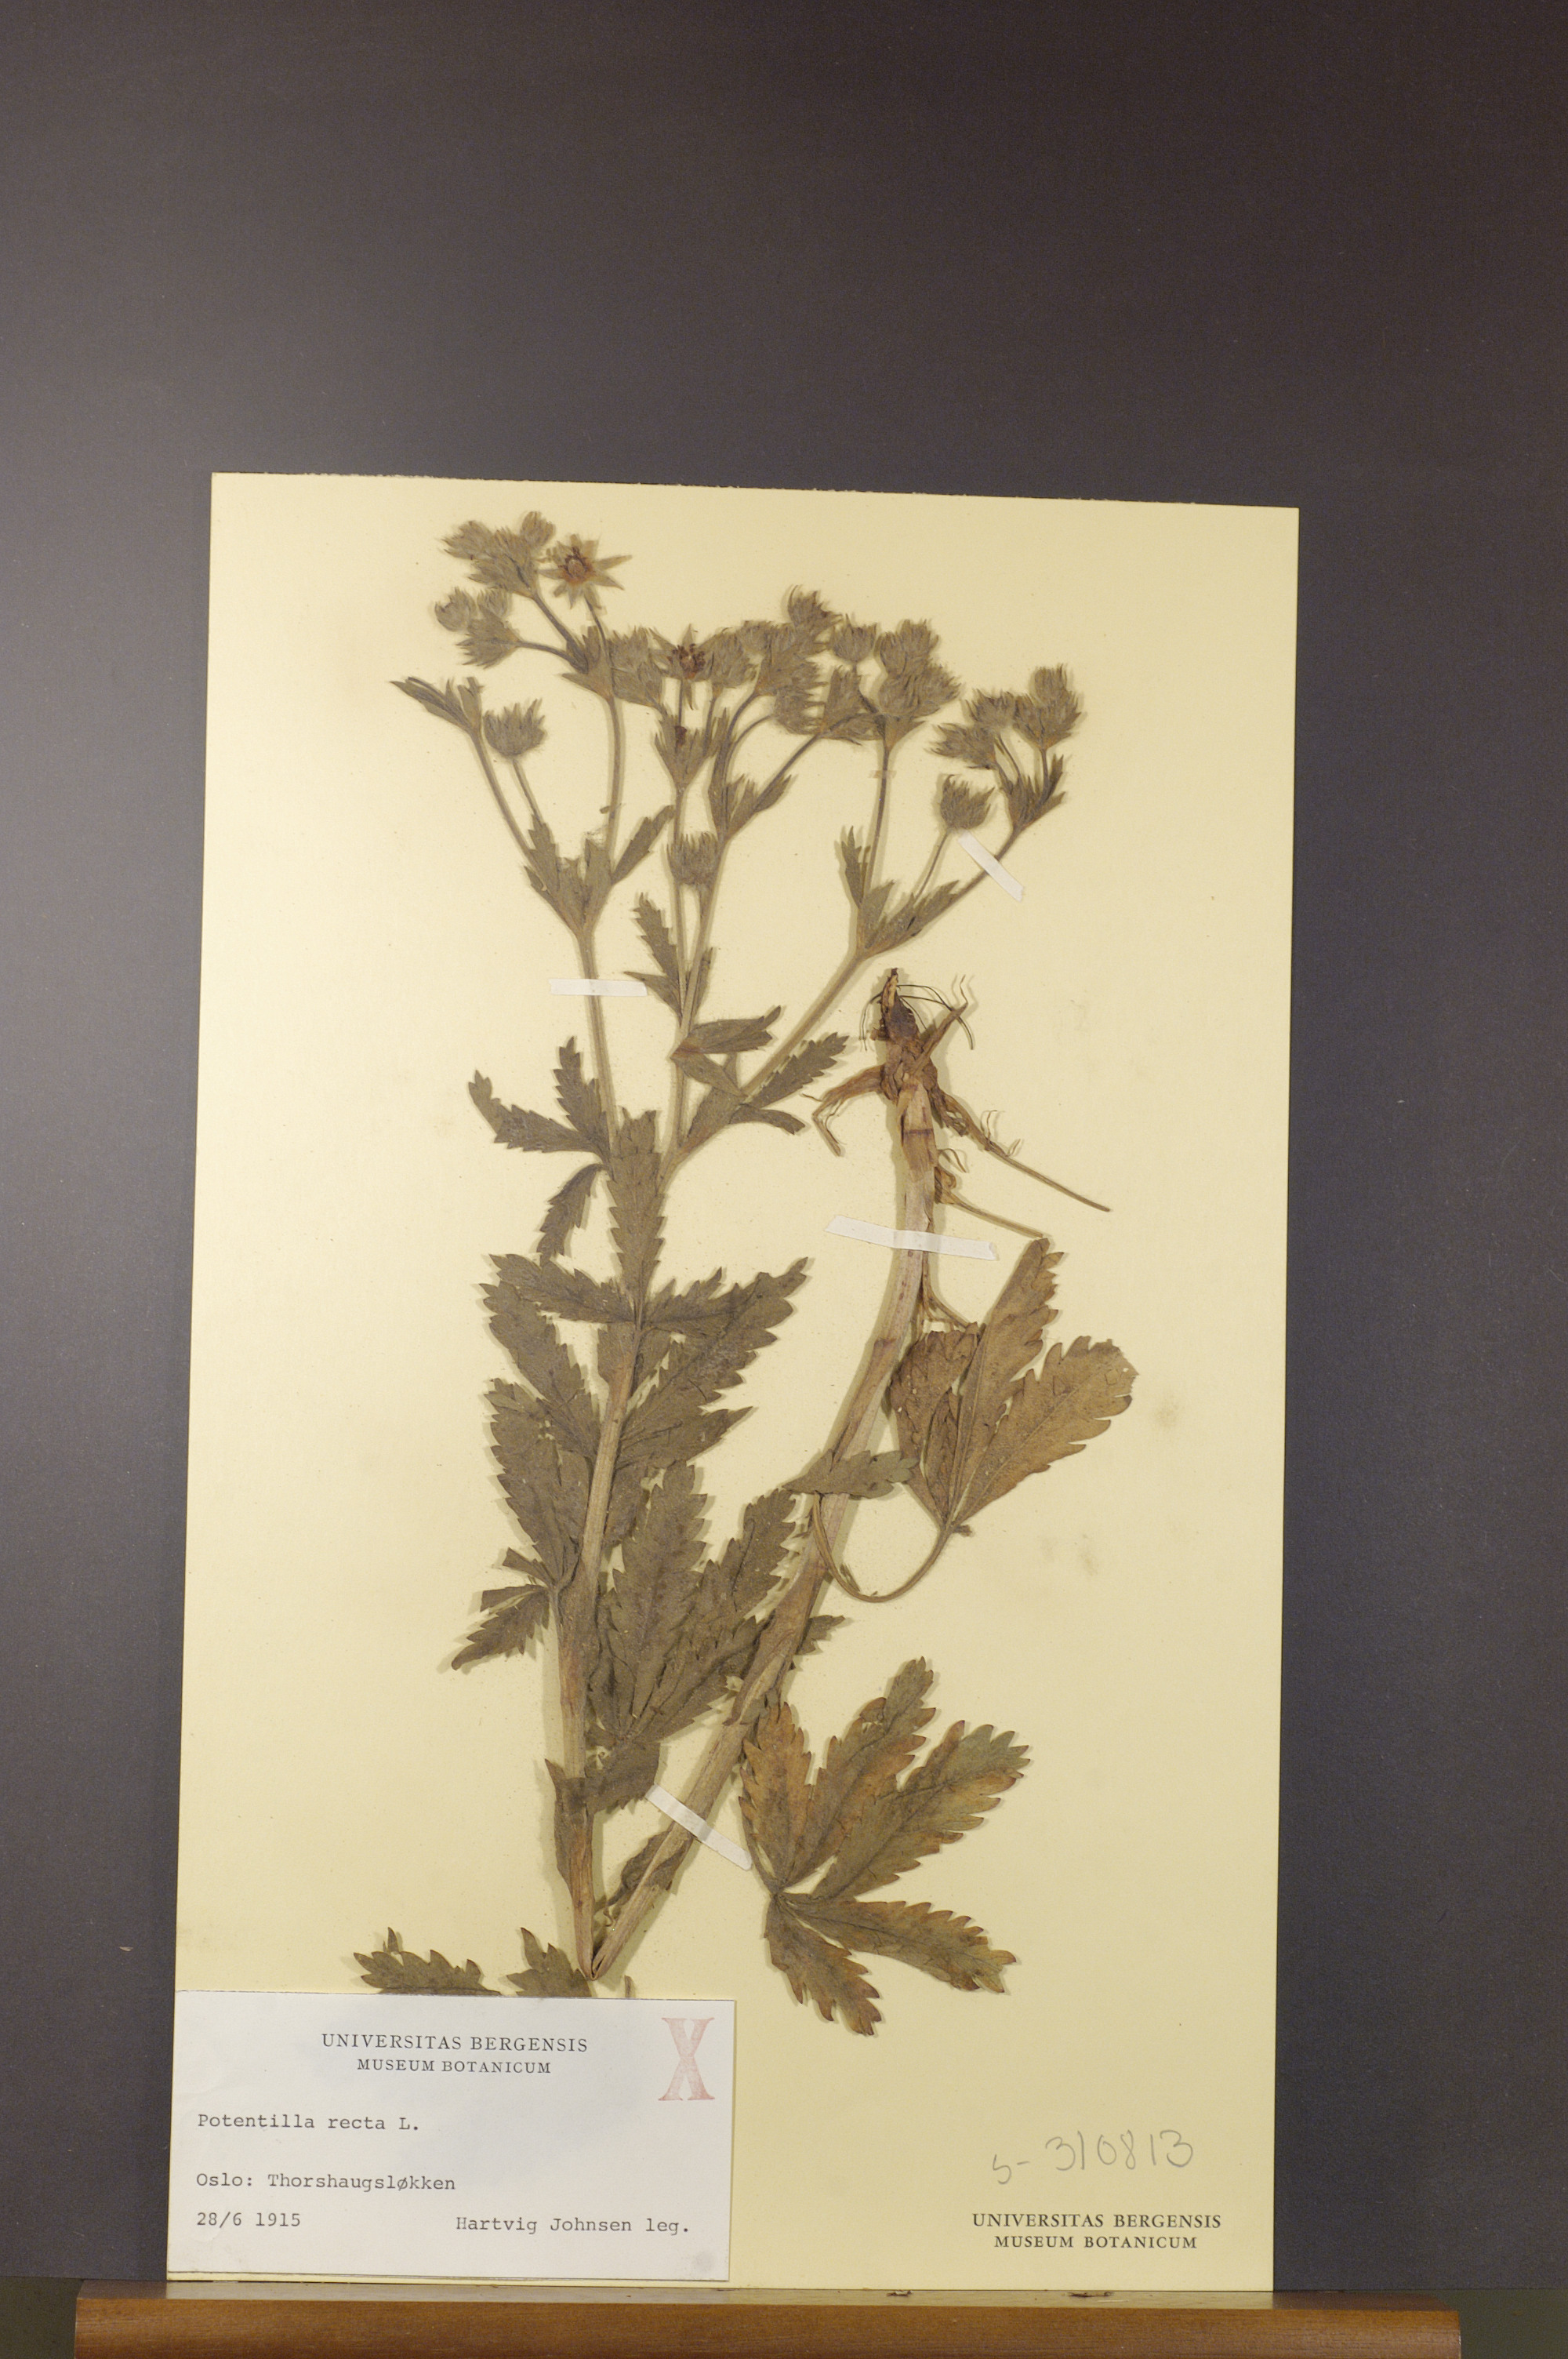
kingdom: Plantae
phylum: Tracheophyta
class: Magnoliopsida
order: Rosales
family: Rosaceae
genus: Potentilla
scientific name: Potentilla recta
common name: Sulphur cinquefoil
